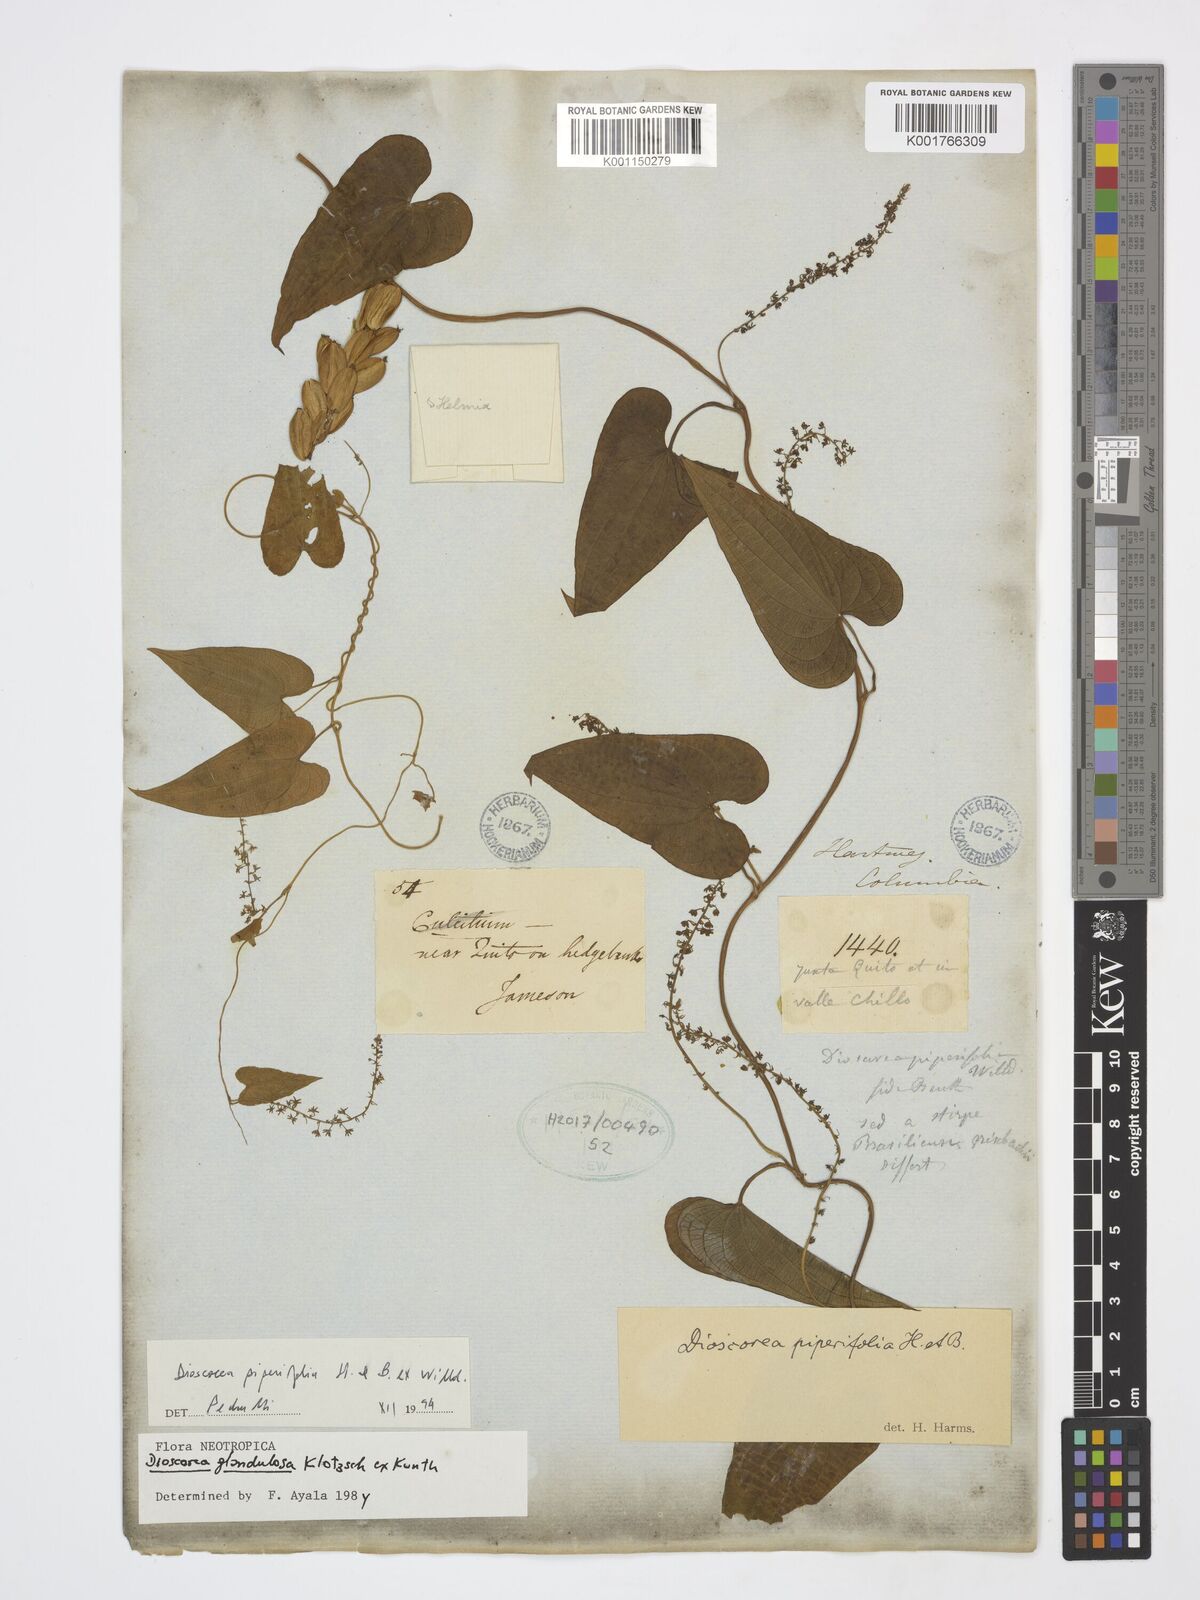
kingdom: Plantae
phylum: Tracheophyta
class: Liliopsida
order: Dioscoreales
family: Dioscoreaceae
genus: Dioscorea
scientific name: Dioscorea piperifolia
